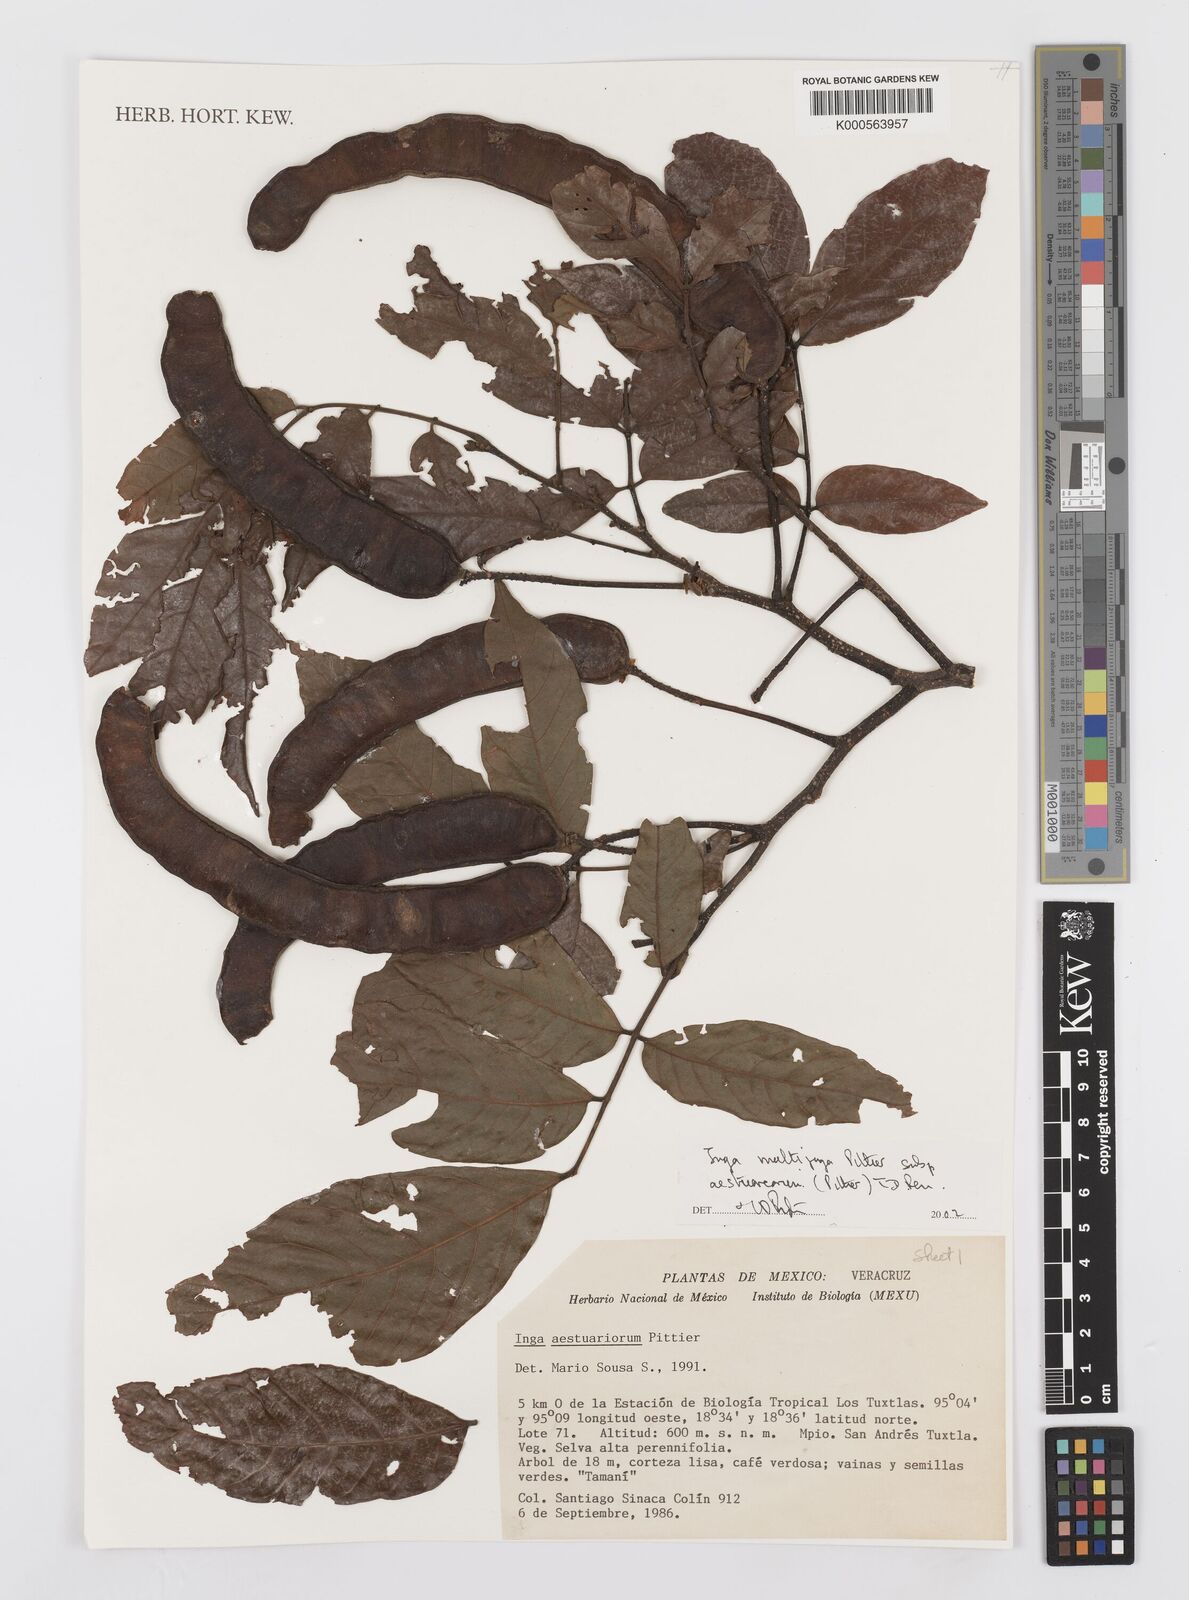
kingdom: Plantae
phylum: Tracheophyta
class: Magnoliopsida
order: Fabales
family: Fabaceae
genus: Inga
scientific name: Inga multijuga
